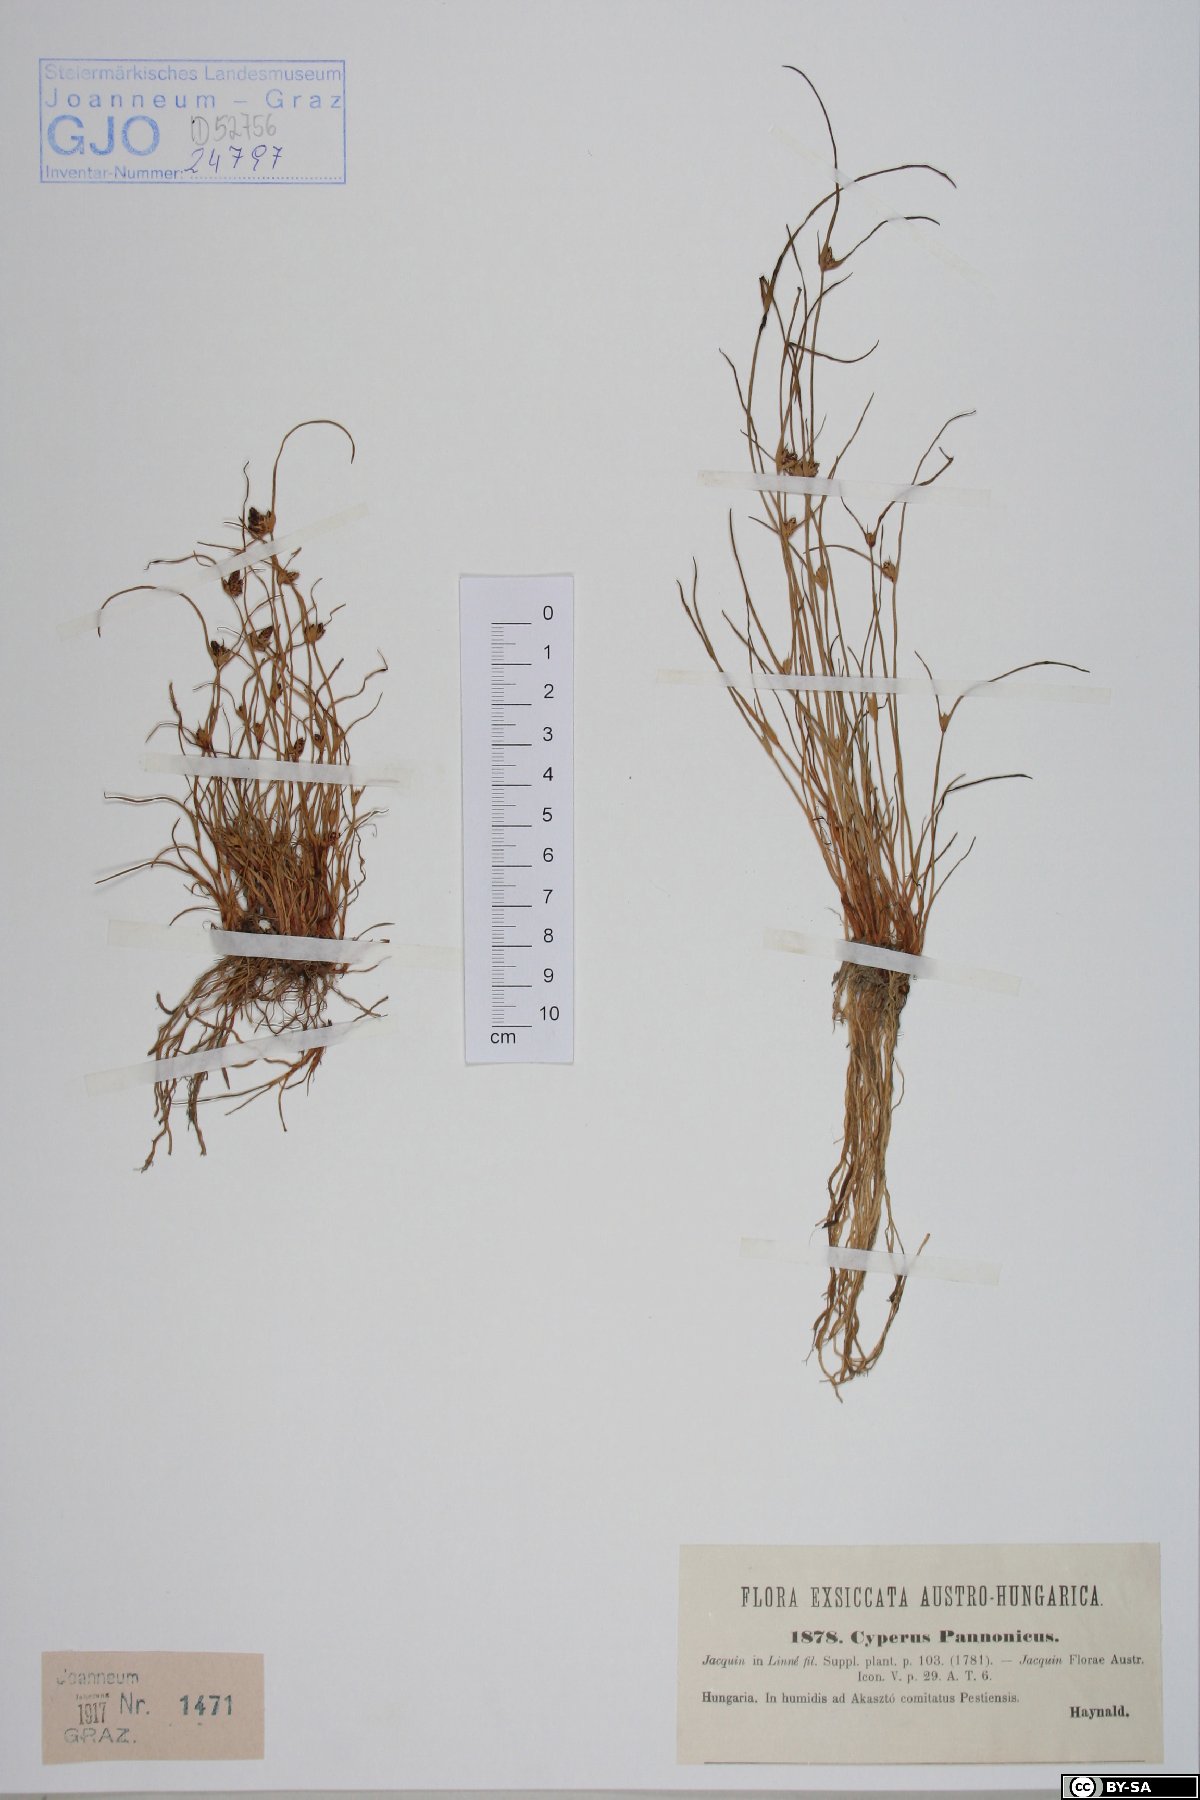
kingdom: Plantae
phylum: Tracheophyta
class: Liliopsida
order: Poales
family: Cyperaceae
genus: Cyperus
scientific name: Cyperus pannonicus
